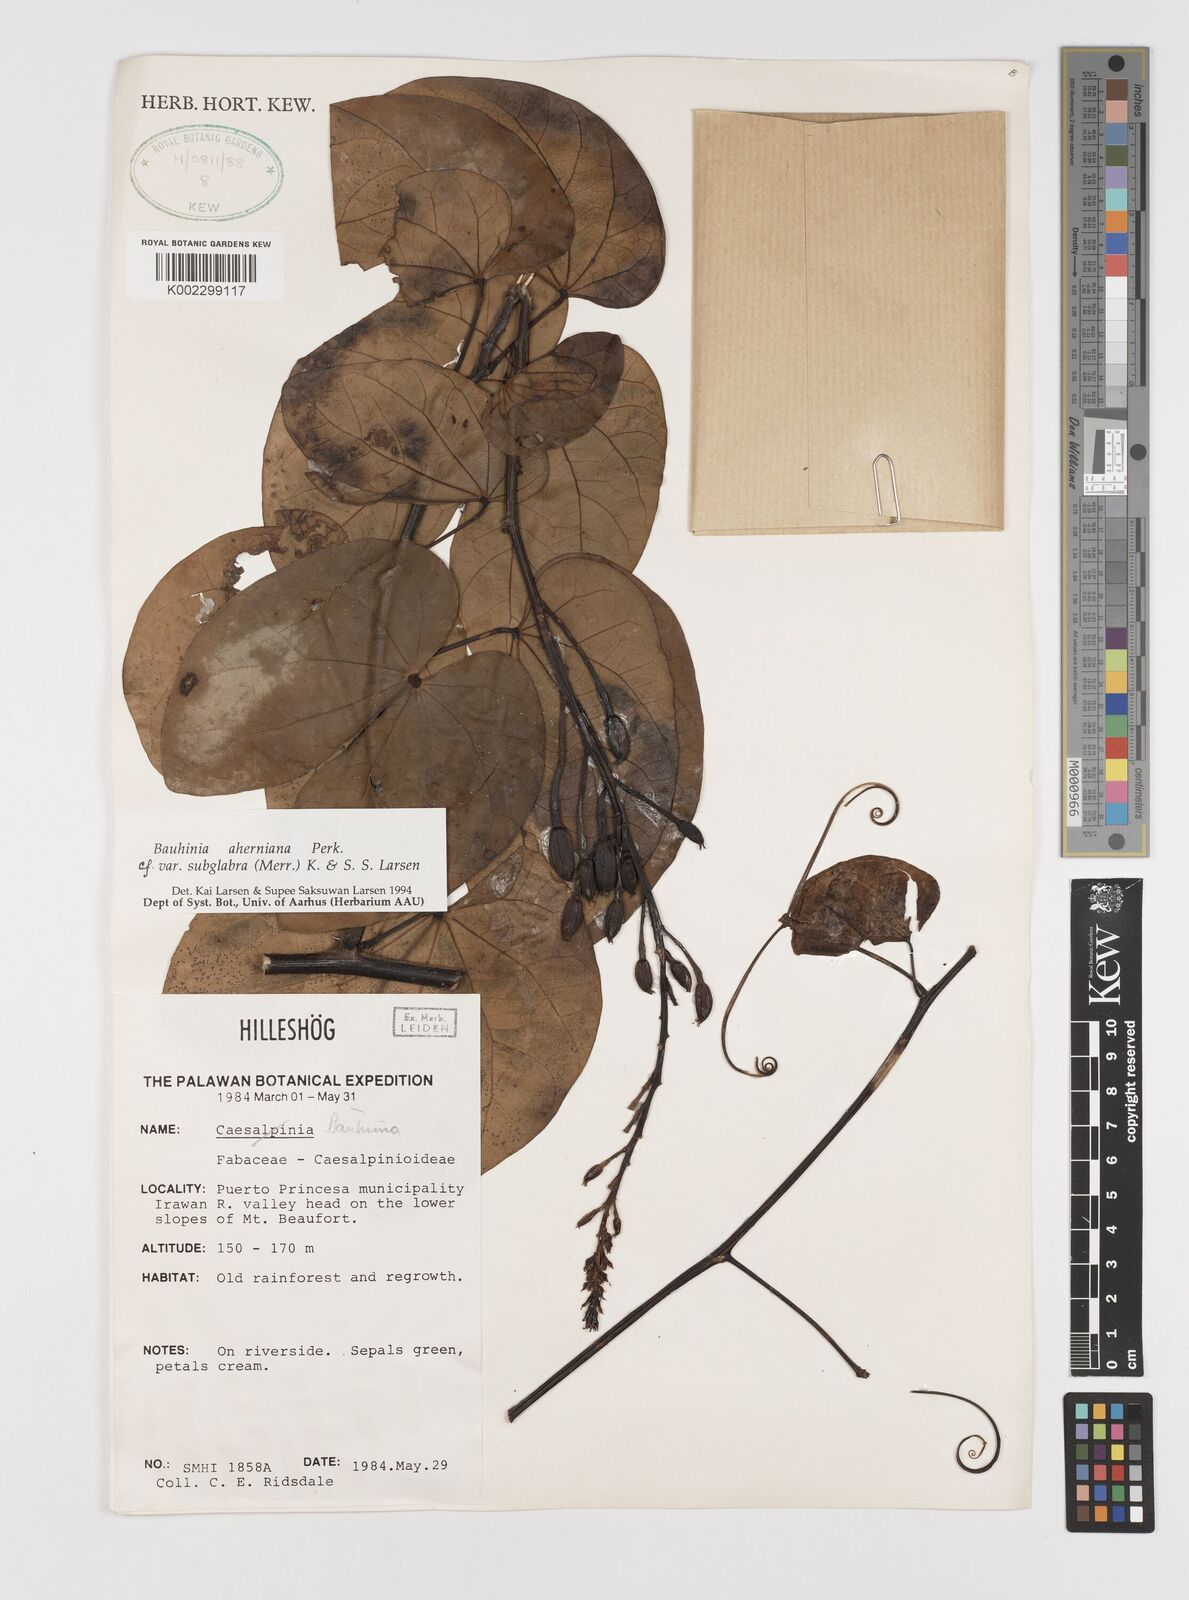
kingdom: Plantae
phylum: Tracheophyta
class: Magnoliopsida
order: Fabales
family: Fabaceae
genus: Phanera
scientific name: Phanera aherniana
